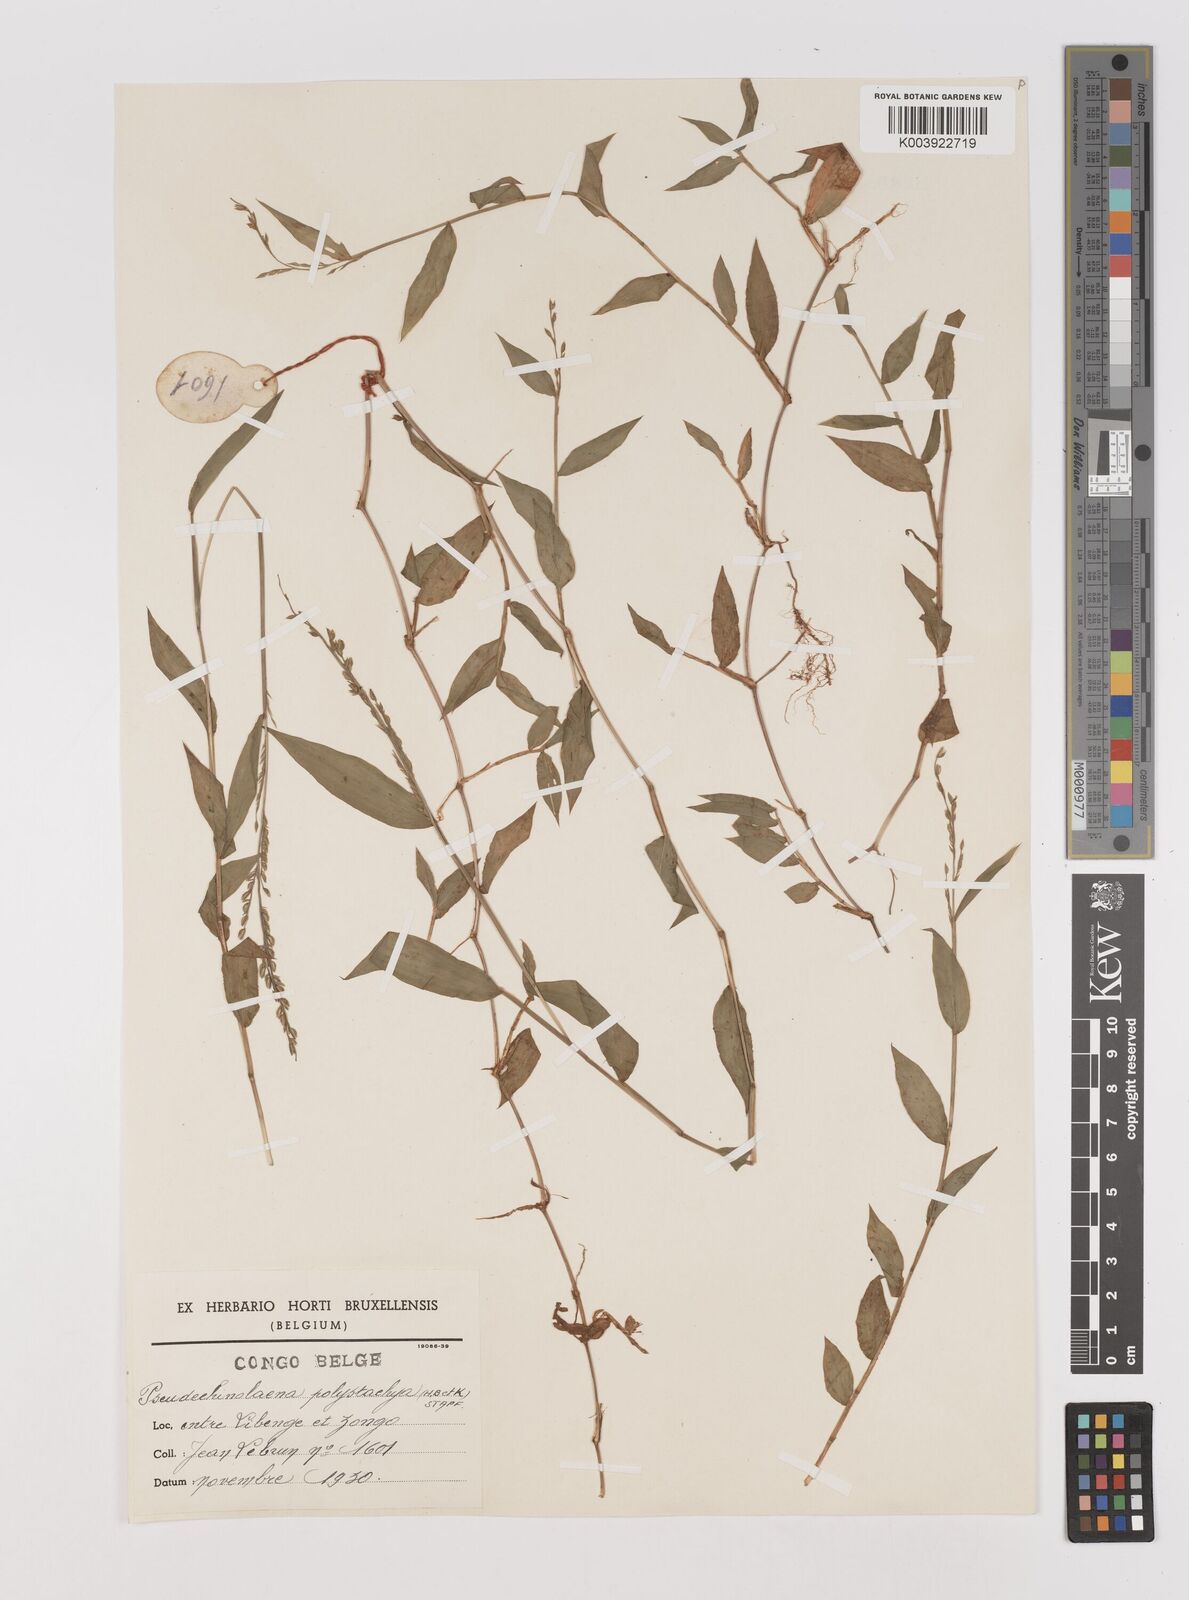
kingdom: Plantae
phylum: Tracheophyta
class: Liliopsida
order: Poales
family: Poaceae
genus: Pseudechinolaena
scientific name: Pseudechinolaena polystachya
